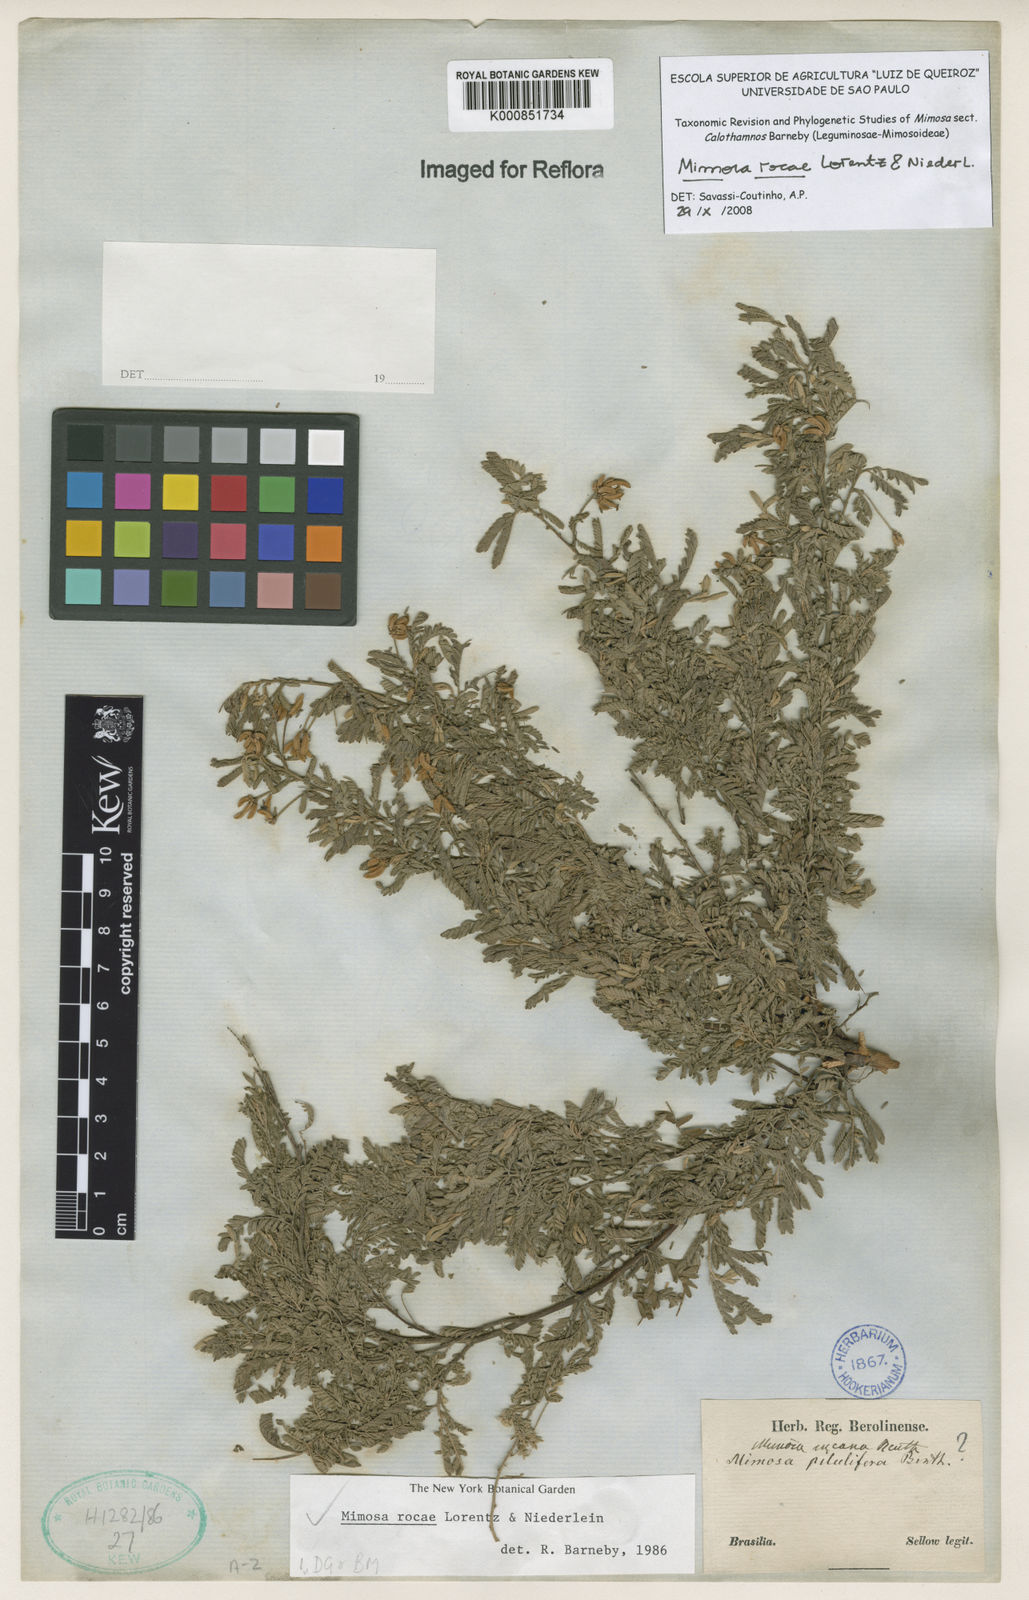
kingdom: Plantae
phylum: Tracheophyta
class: Magnoliopsida
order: Fabales
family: Fabaceae
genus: Mimosa
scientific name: Mimosa rocae
